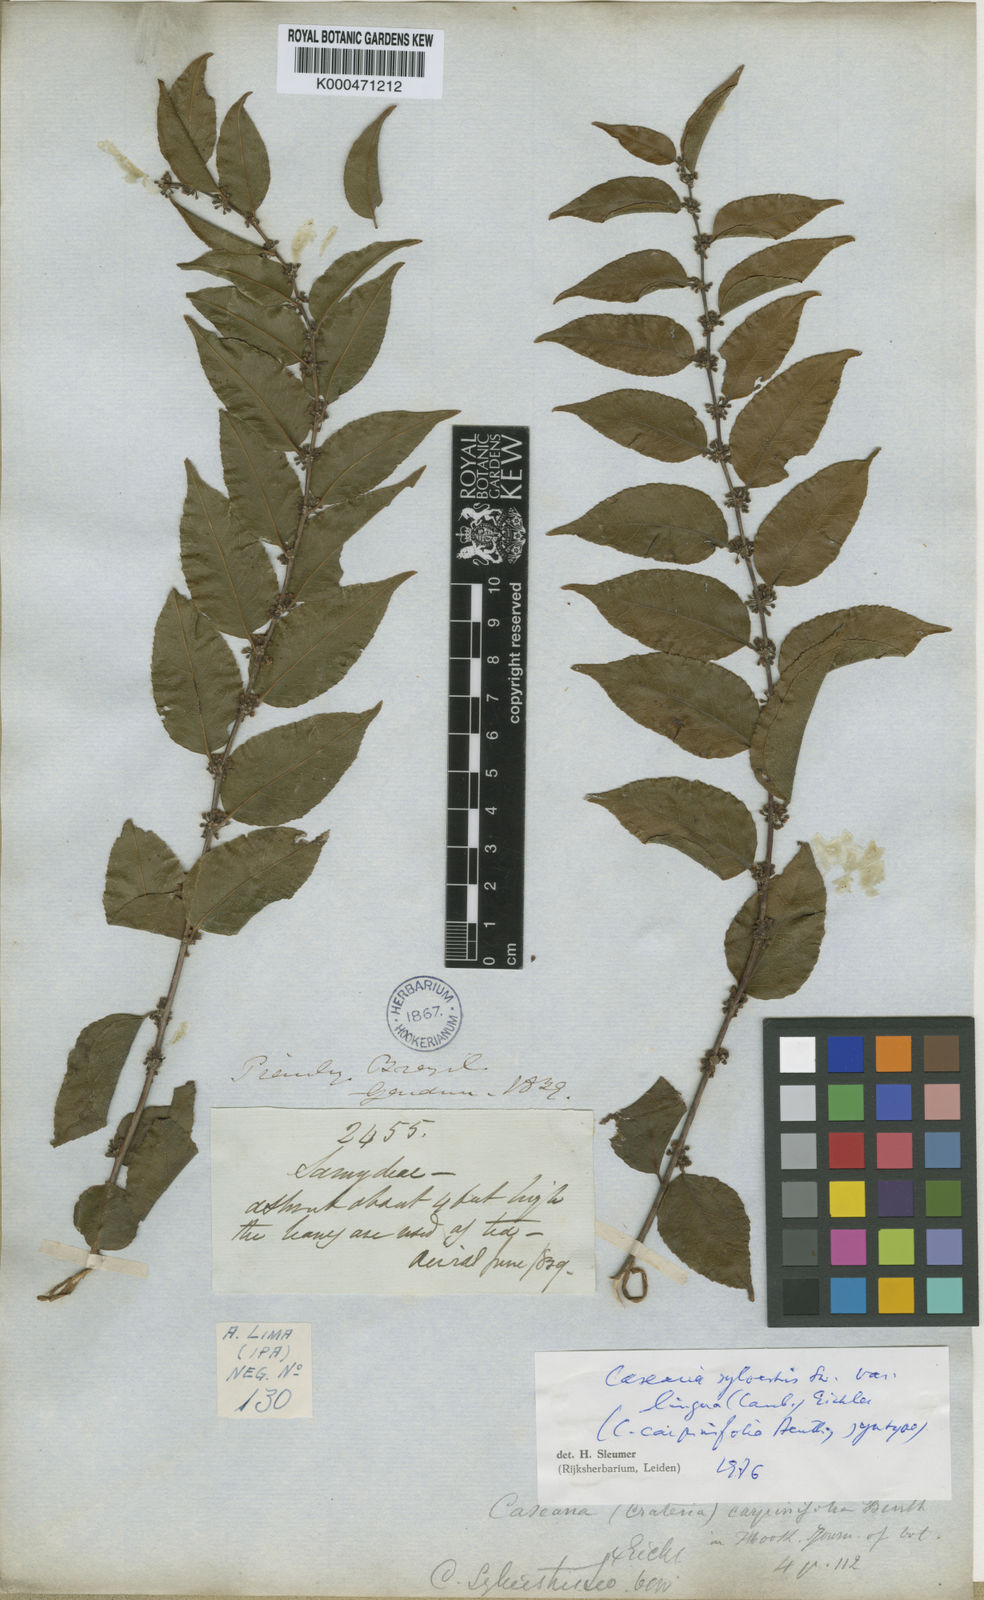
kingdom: Plantae
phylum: Tracheophyta
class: Magnoliopsida
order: Malpighiales
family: Salicaceae
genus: Casearia
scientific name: Casearia sylvestris
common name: Wild sage
